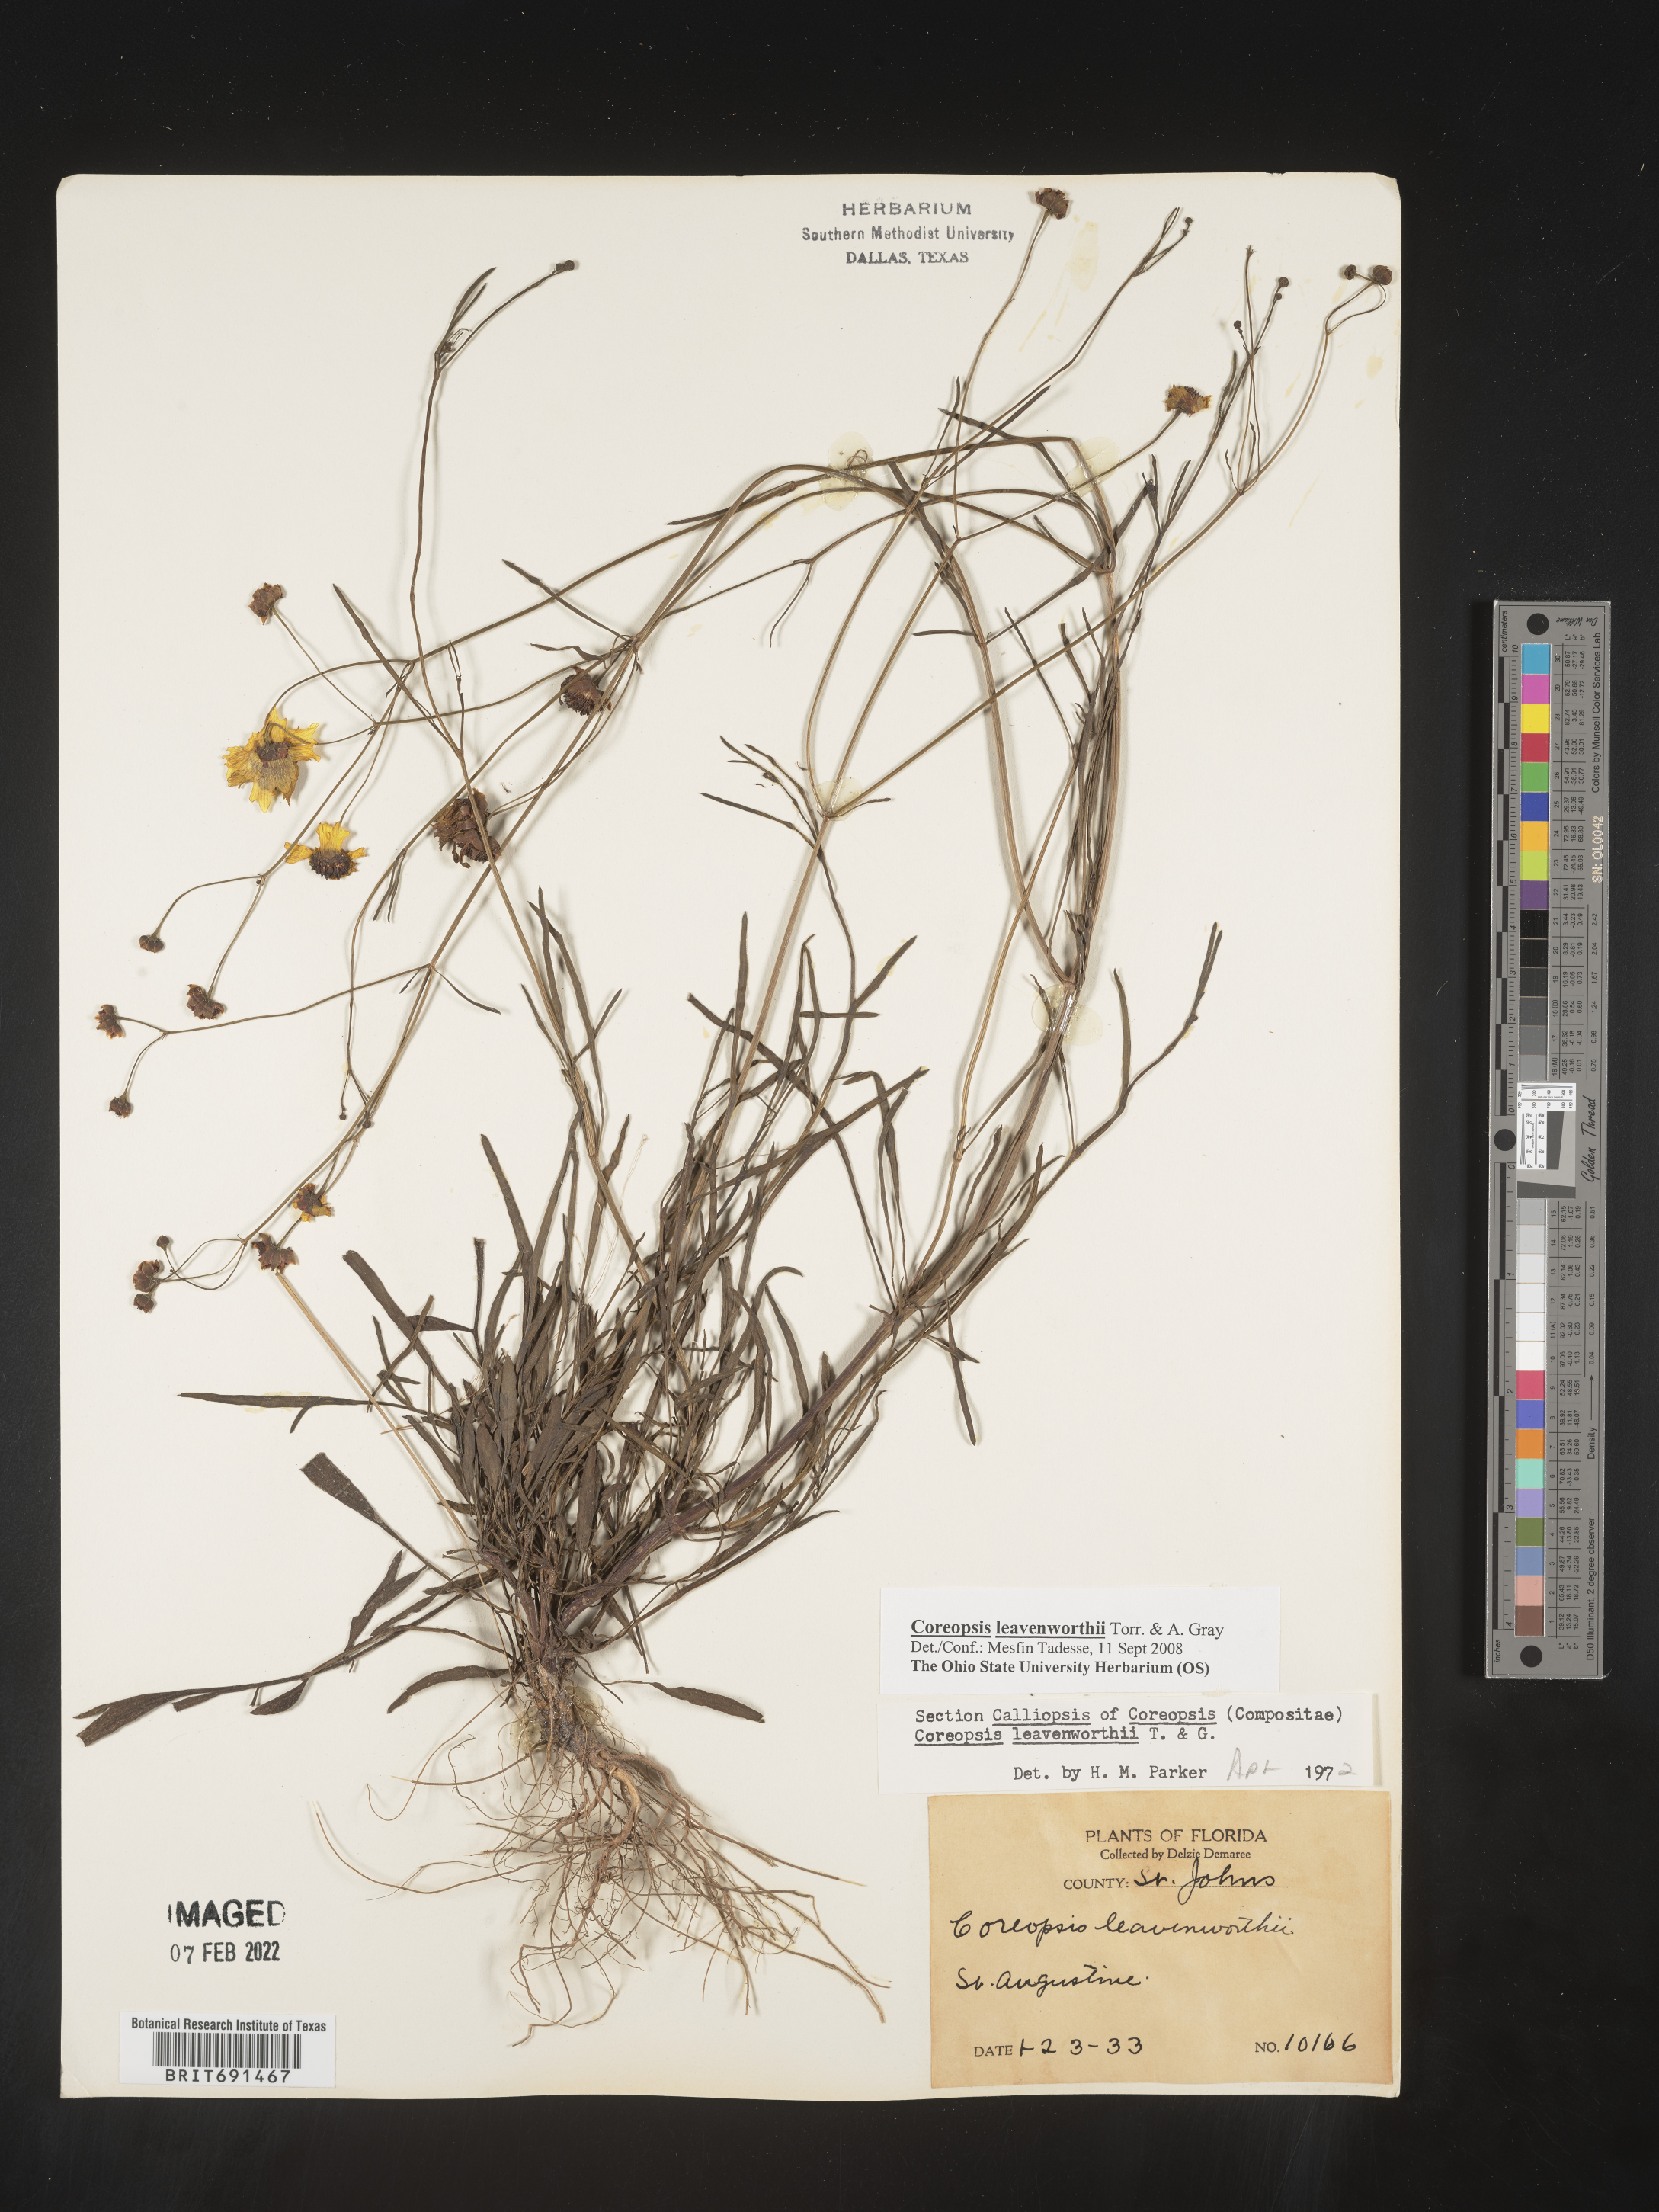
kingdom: Plantae
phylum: Tracheophyta
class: Magnoliopsida
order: Asterales
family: Asteraceae
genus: Coreopsis
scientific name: Coreopsis leavenworthii
